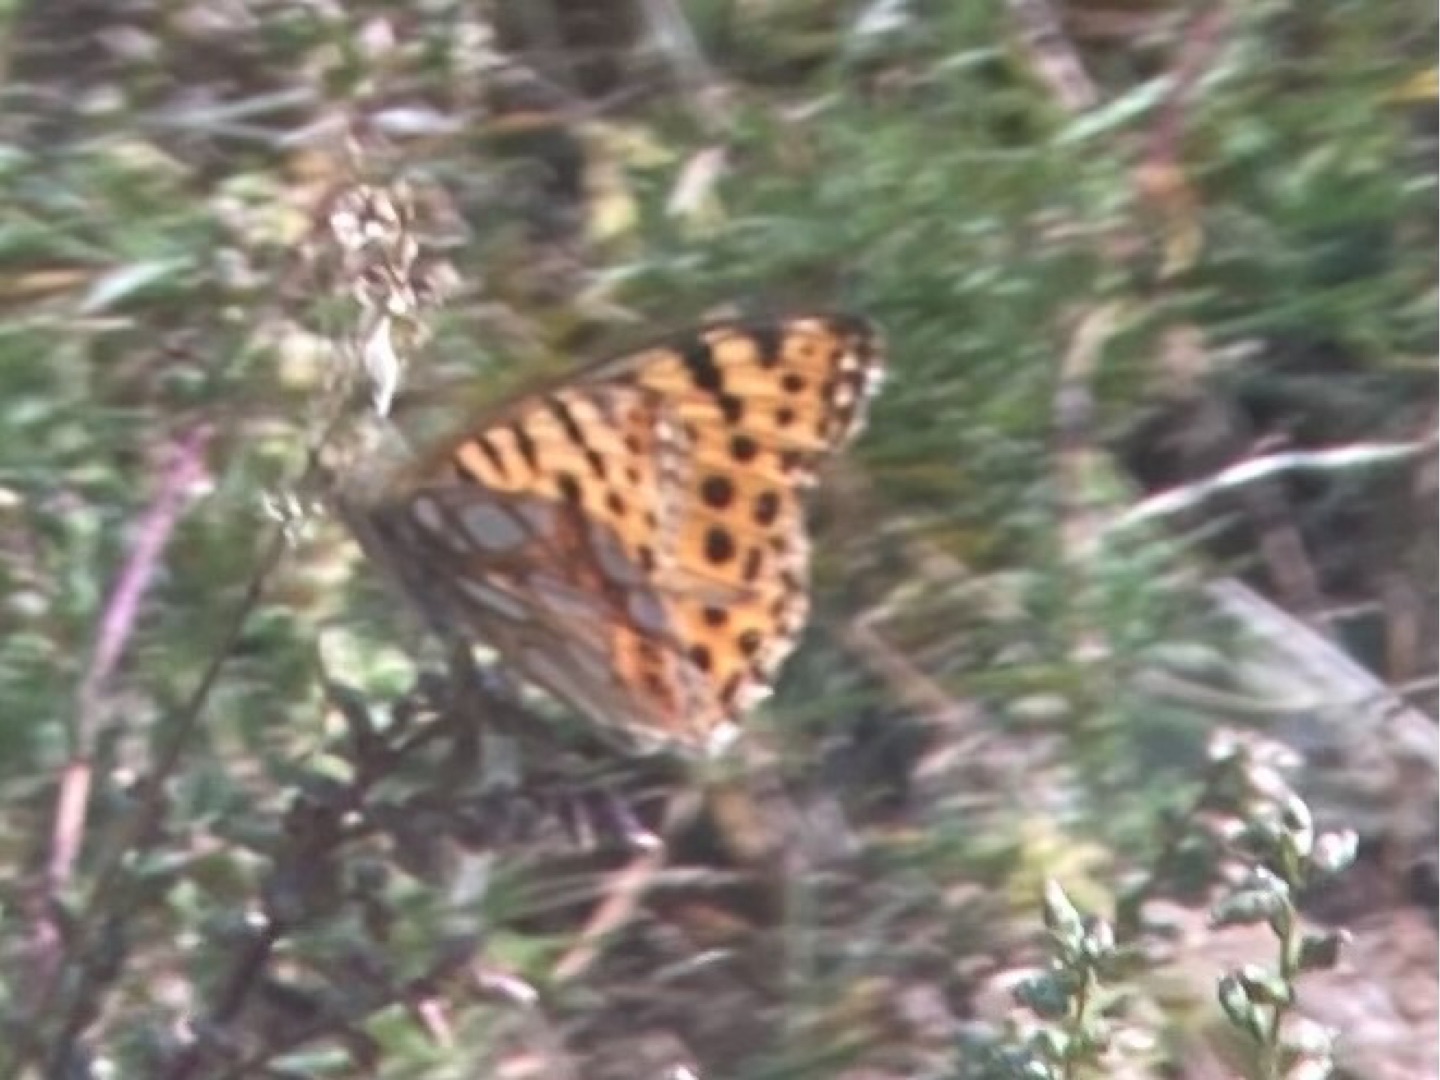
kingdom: Animalia
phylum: Arthropoda
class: Insecta
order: Lepidoptera
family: Nymphalidae
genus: Issoria
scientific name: Issoria lathonia
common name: Storplettet perlemorsommerfugl
